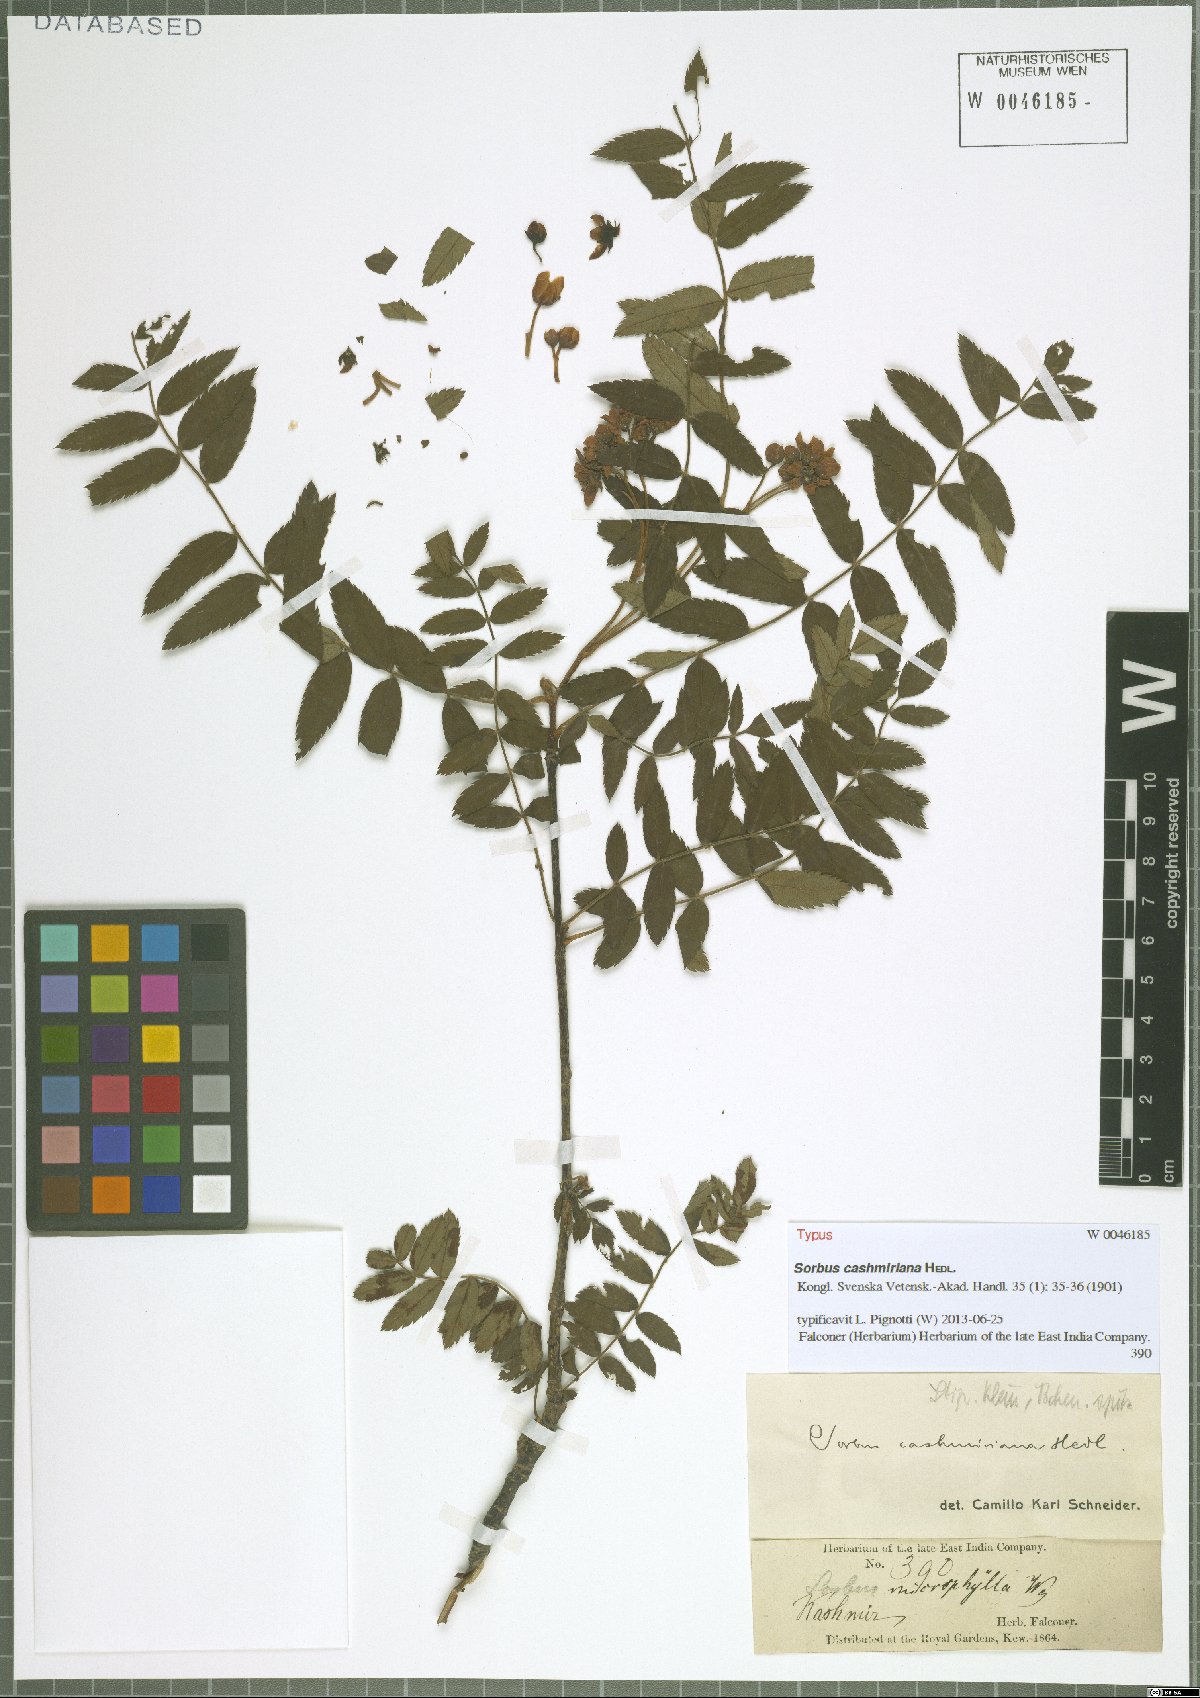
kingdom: Plantae
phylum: Tracheophyta
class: Magnoliopsida
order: Rosales
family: Rosaceae
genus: Sorbus
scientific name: Sorbus cashmiriana
